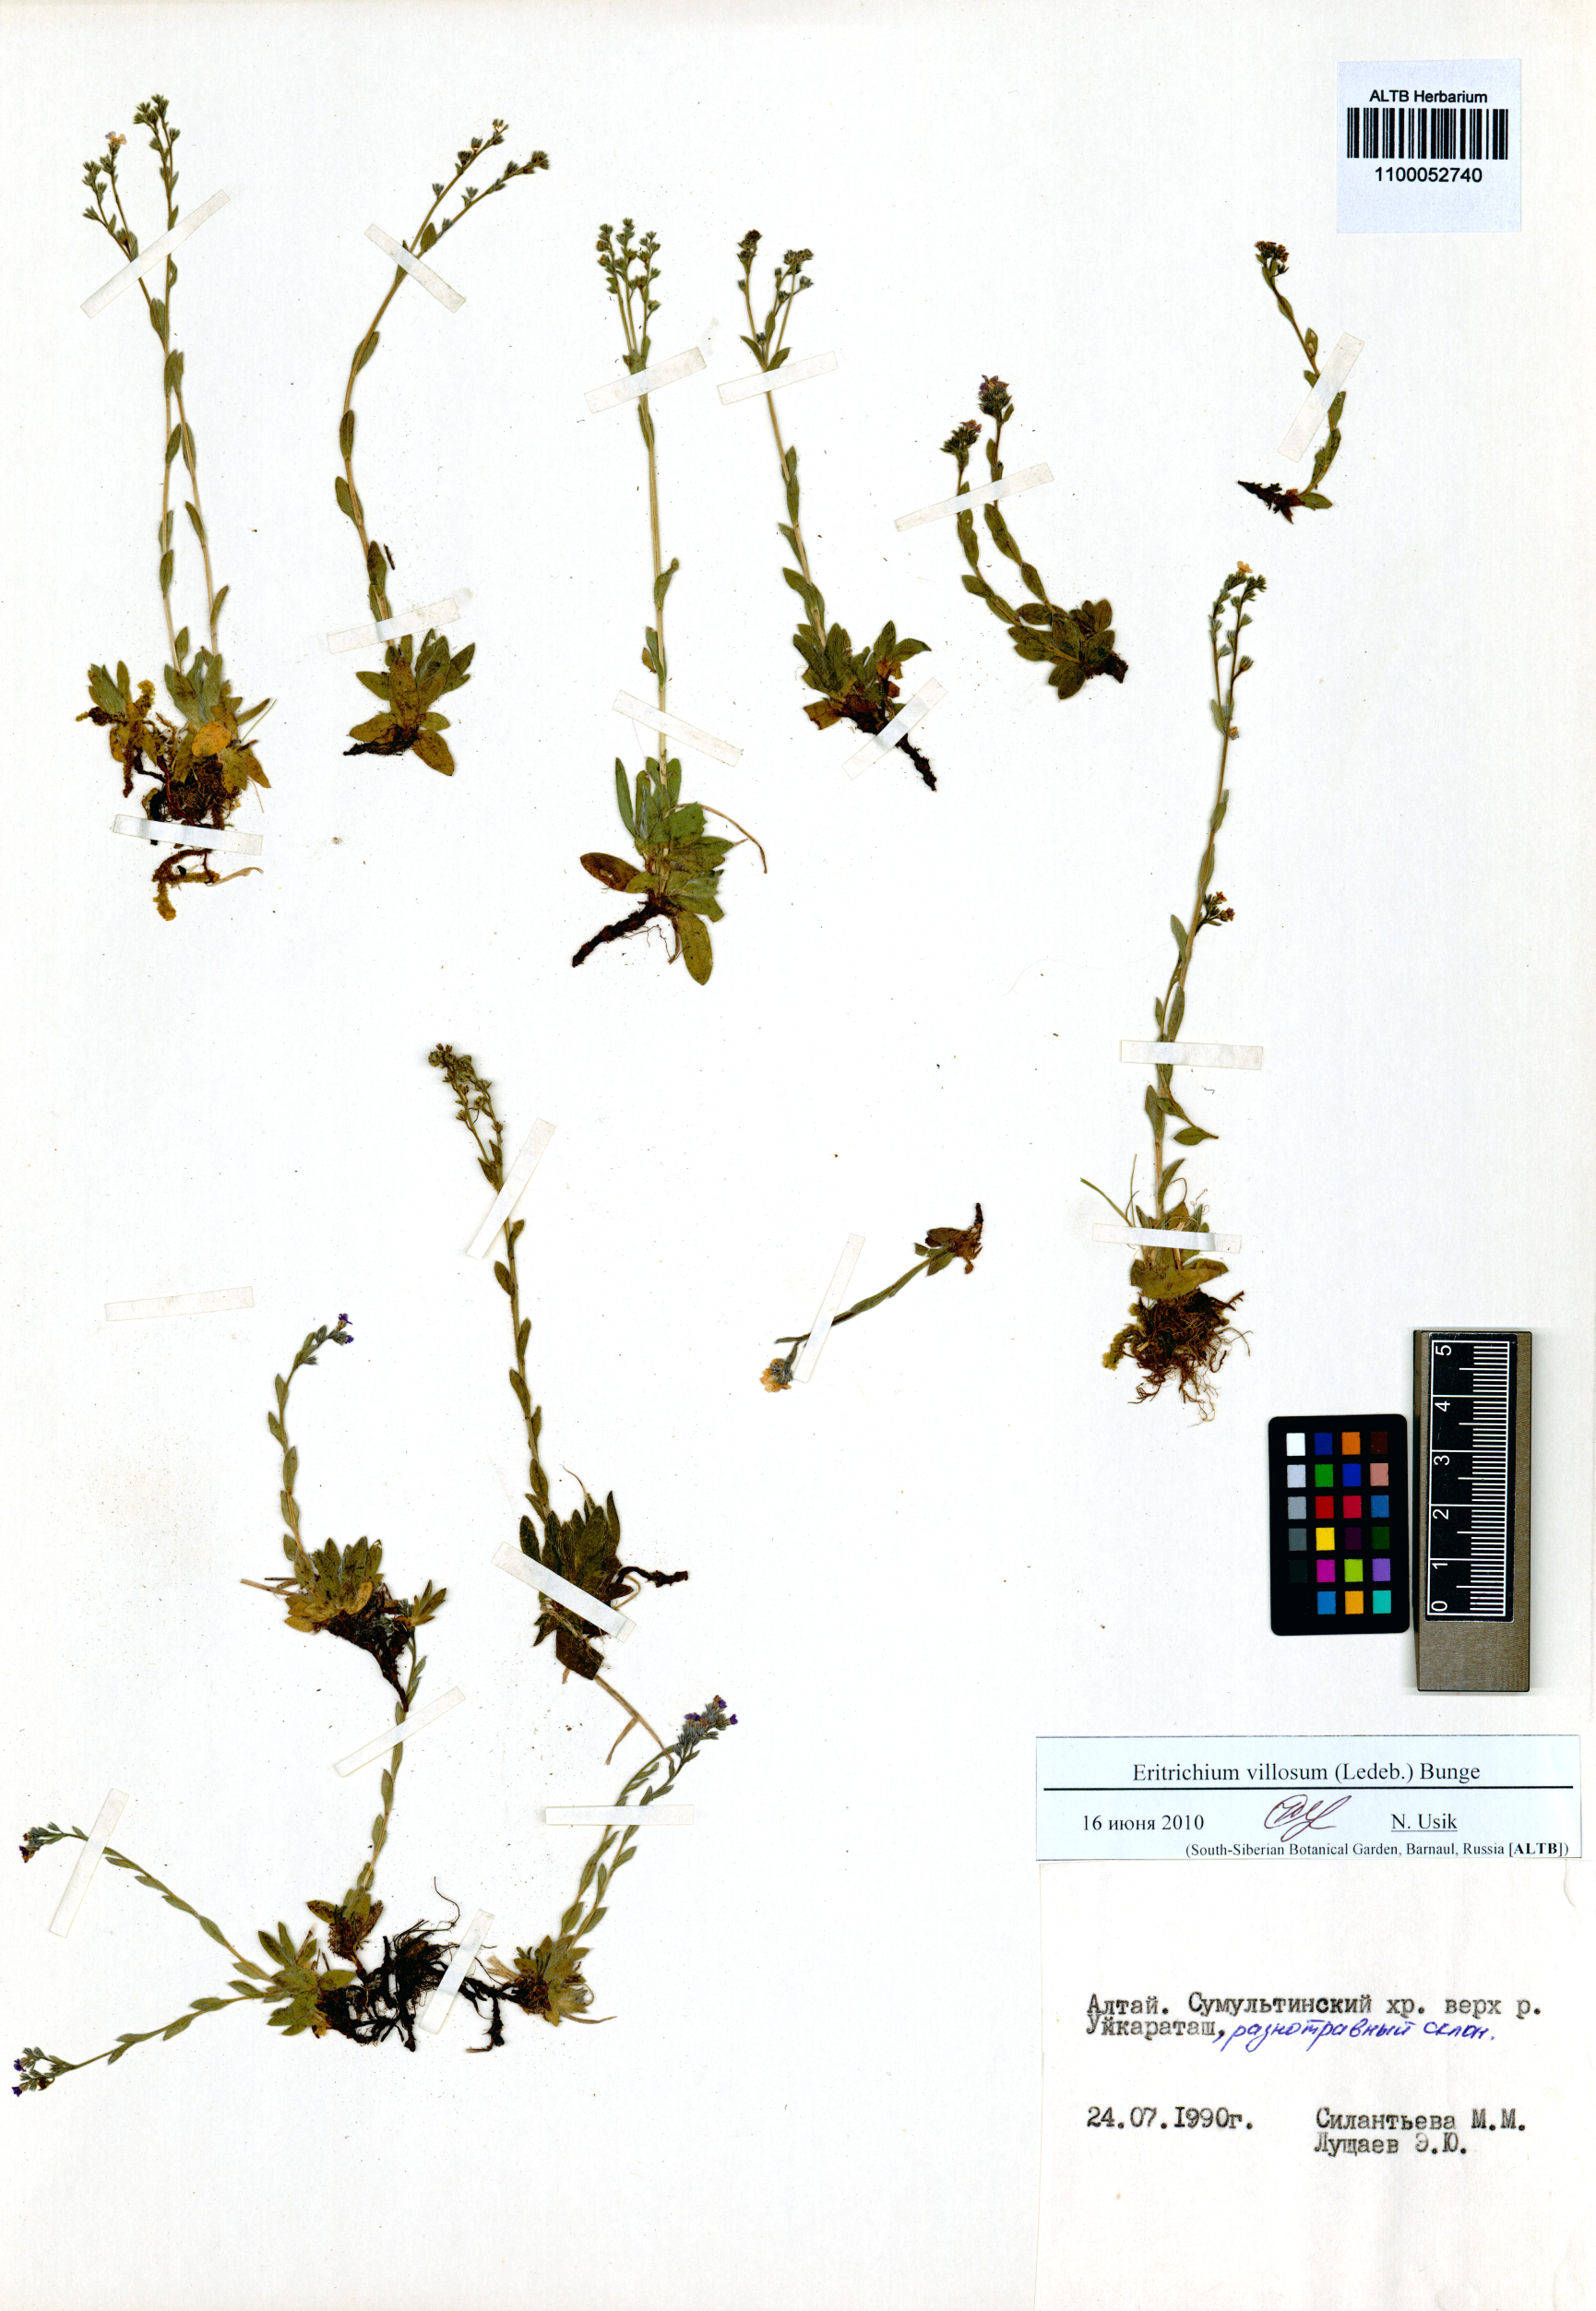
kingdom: Plantae
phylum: Tracheophyta
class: Magnoliopsida
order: Boraginales
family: Boraginaceae
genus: Eritrichium
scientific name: Eritrichium villosum
